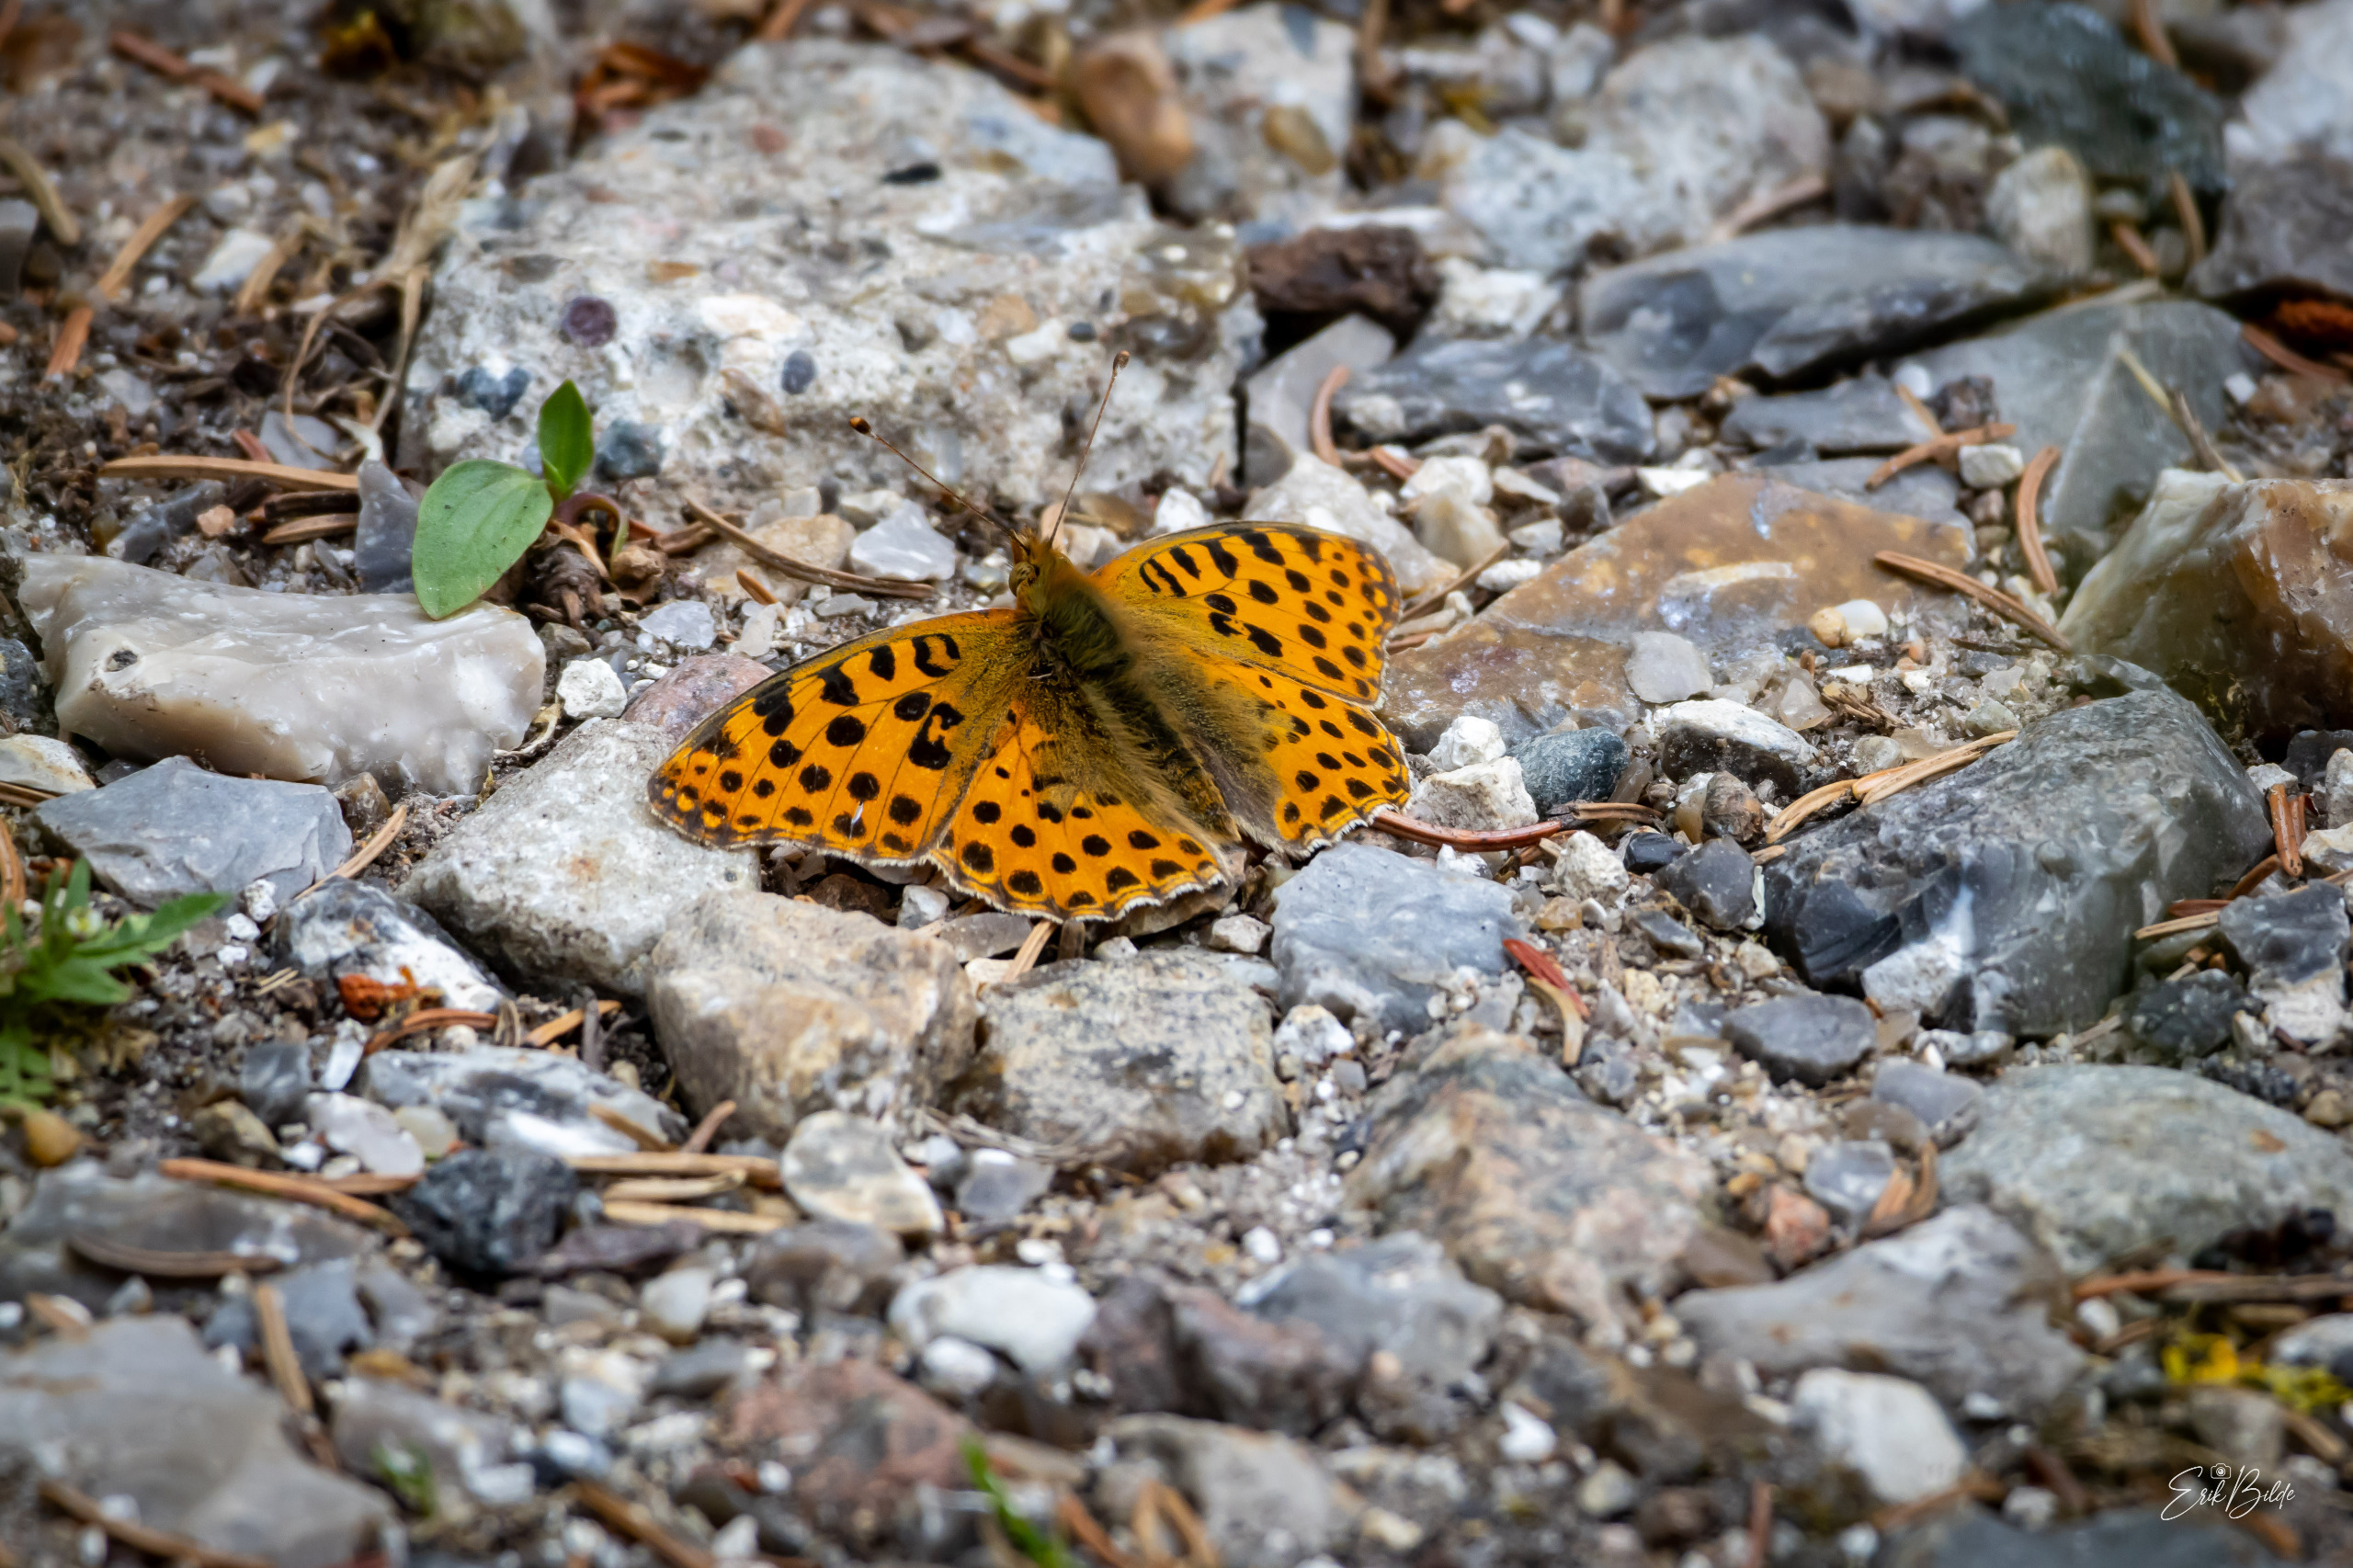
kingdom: Animalia
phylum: Arthropoda
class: Insecta
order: Lepidoptera
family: Nymphalidae
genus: Issoria
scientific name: Issoria lathonia
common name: Storplettet perlemorsommerfugl
